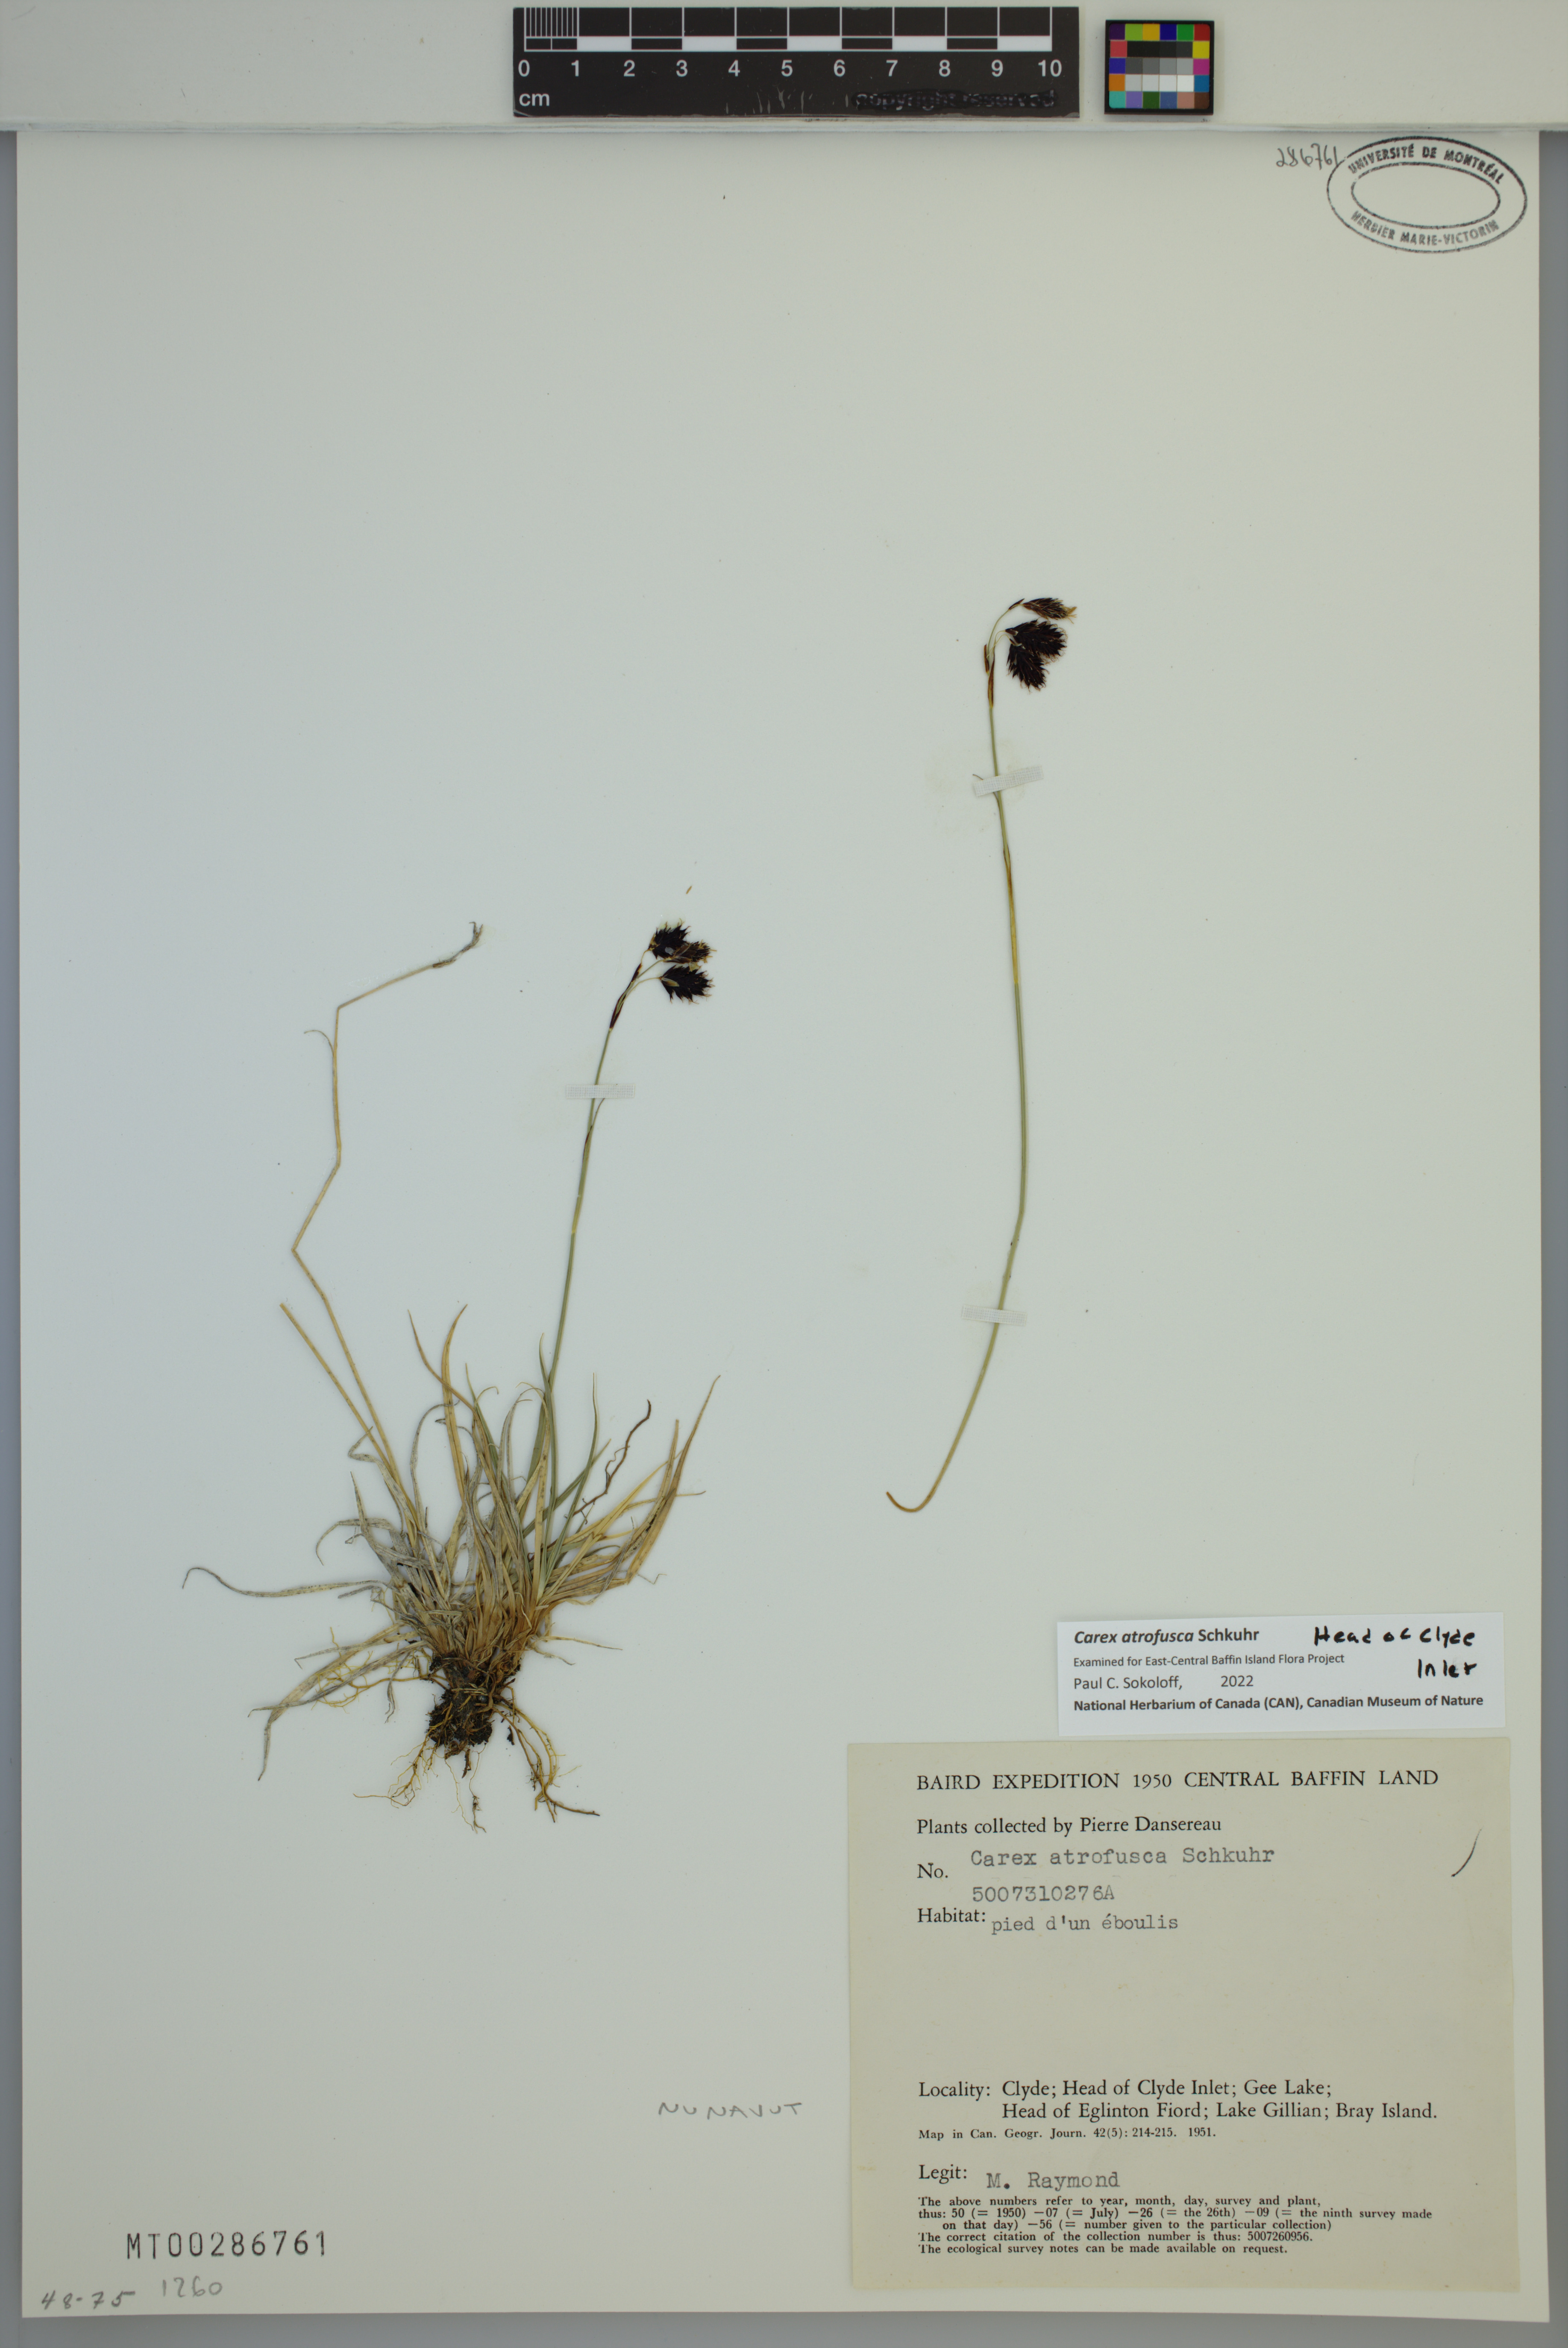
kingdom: Plantae
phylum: Tracheophyta
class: Liliopsida
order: Poales
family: Cyperaceae
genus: Carex
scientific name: Carex atrofusca
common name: Scorched alpine-sedge
